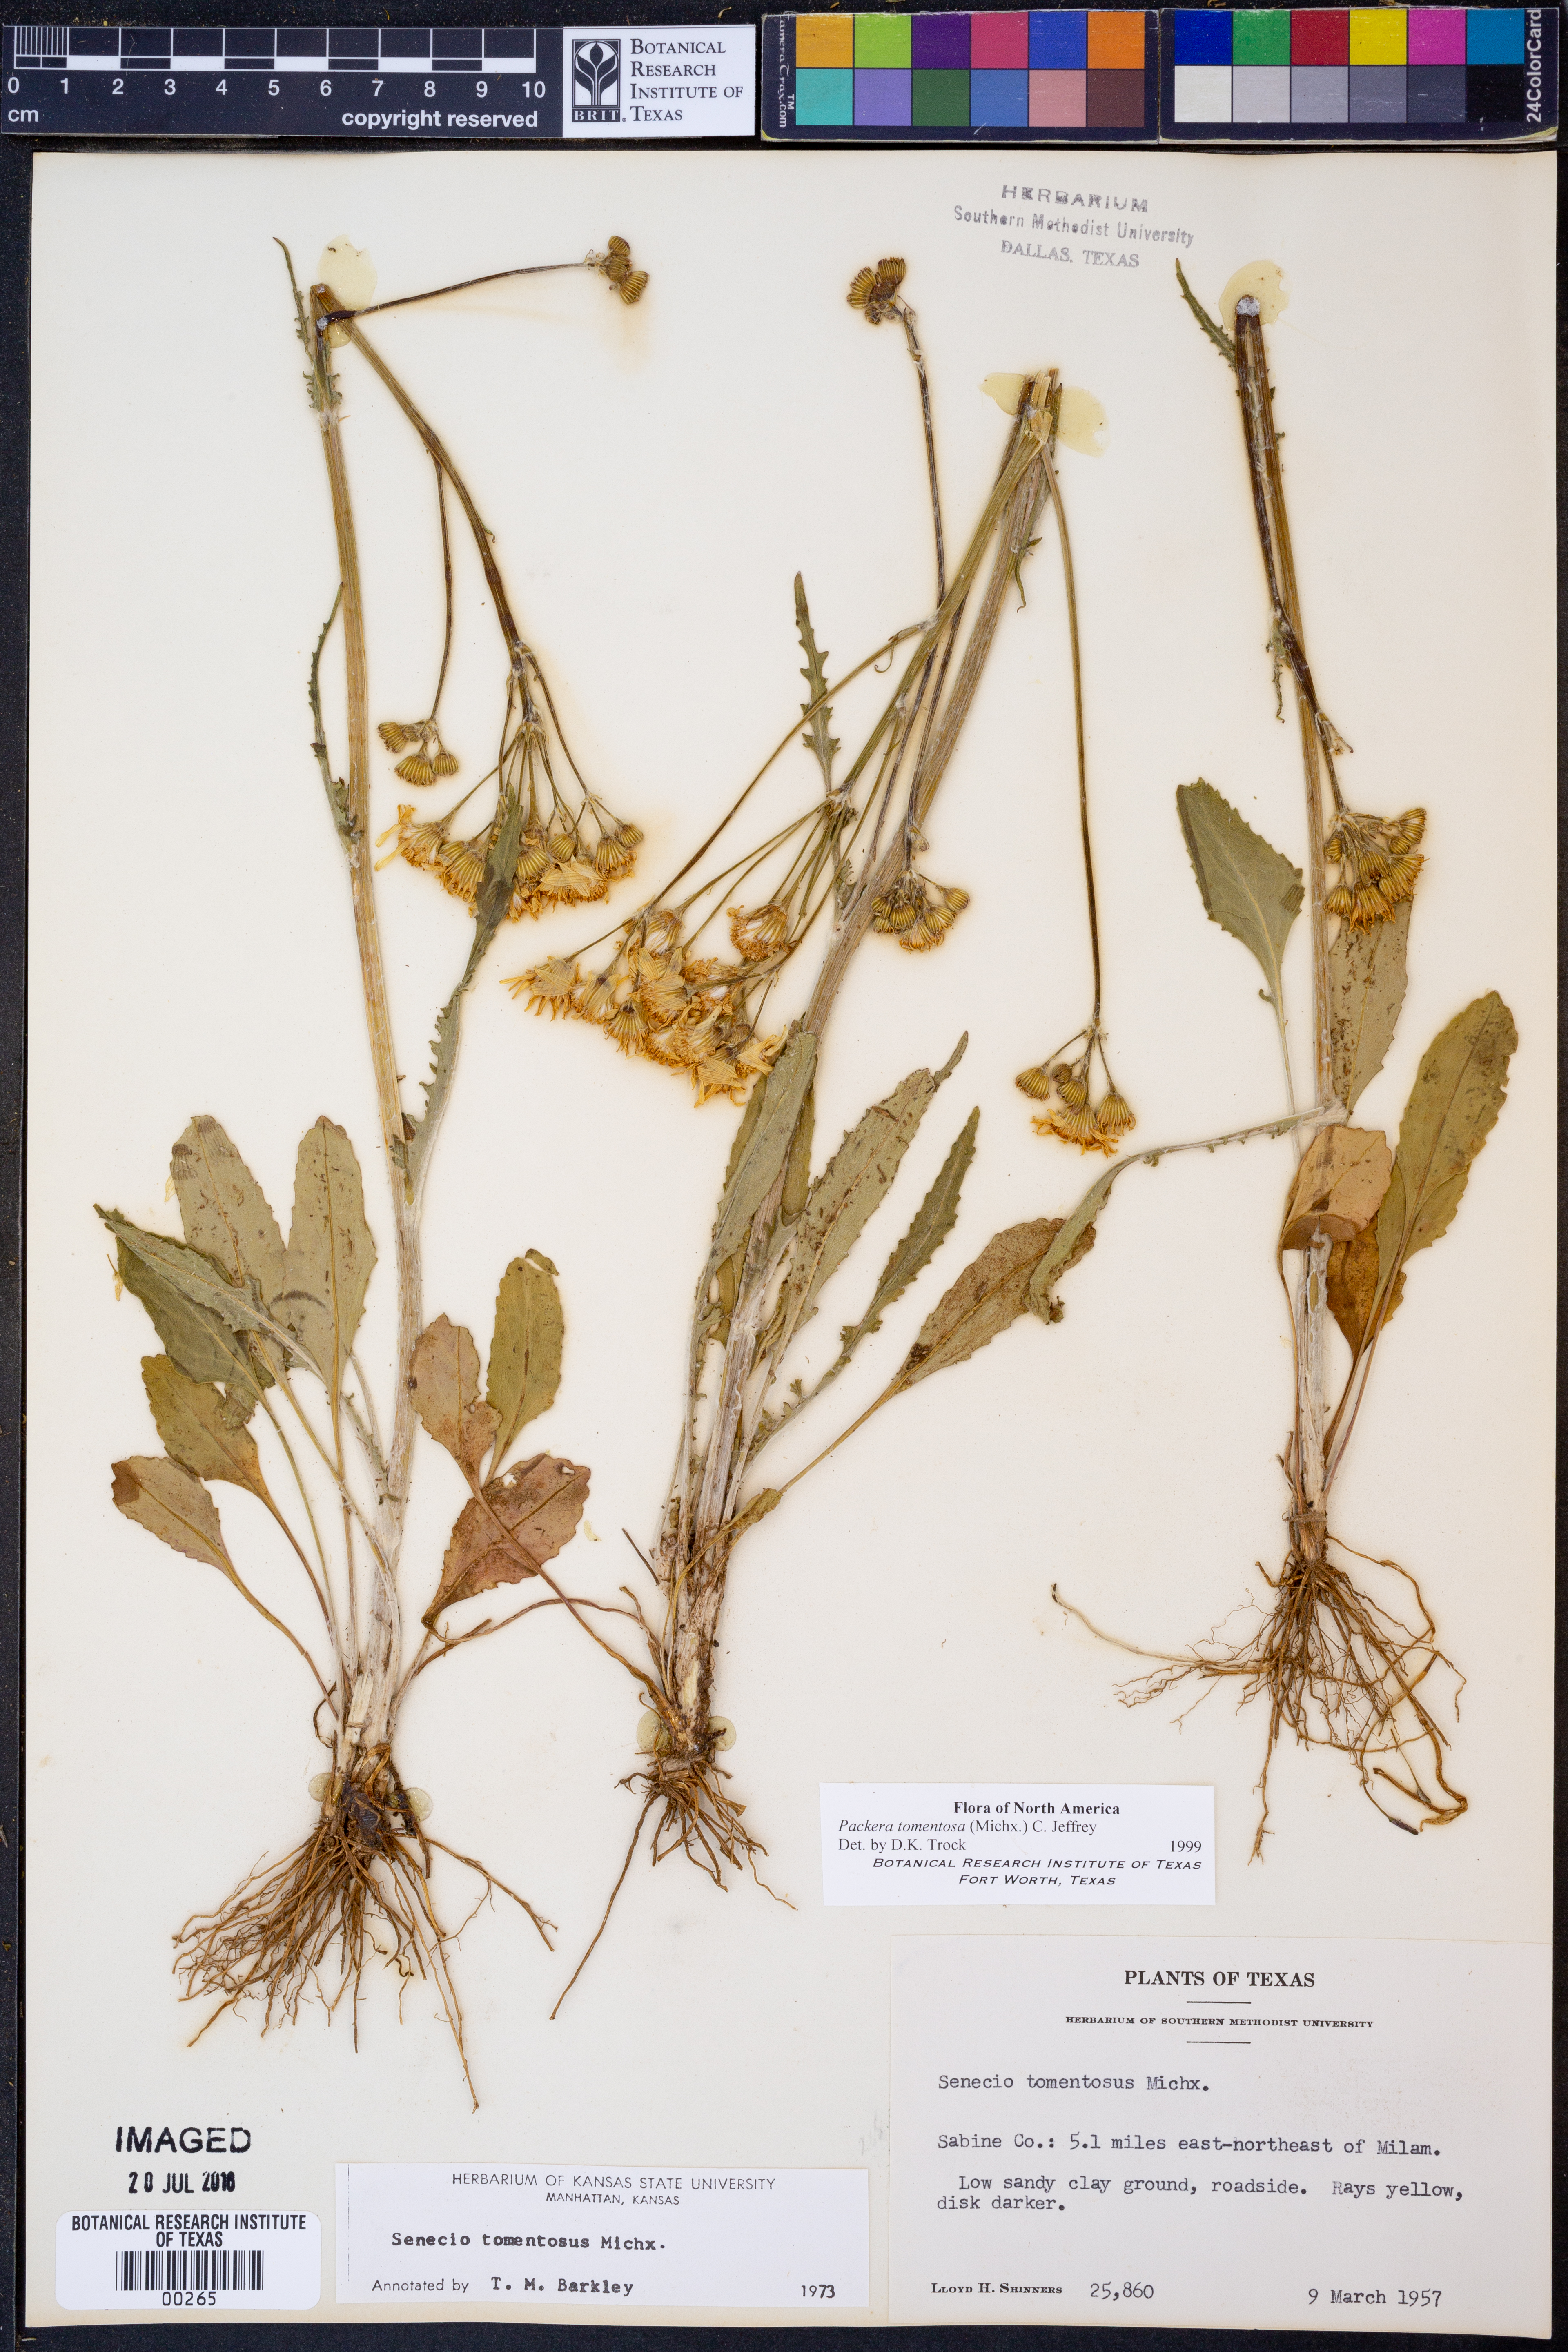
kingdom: Plantae
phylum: Tracheophyta
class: Magnoliopsida
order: Asterales
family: Asteraceae
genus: Packera
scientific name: Packera dubia
